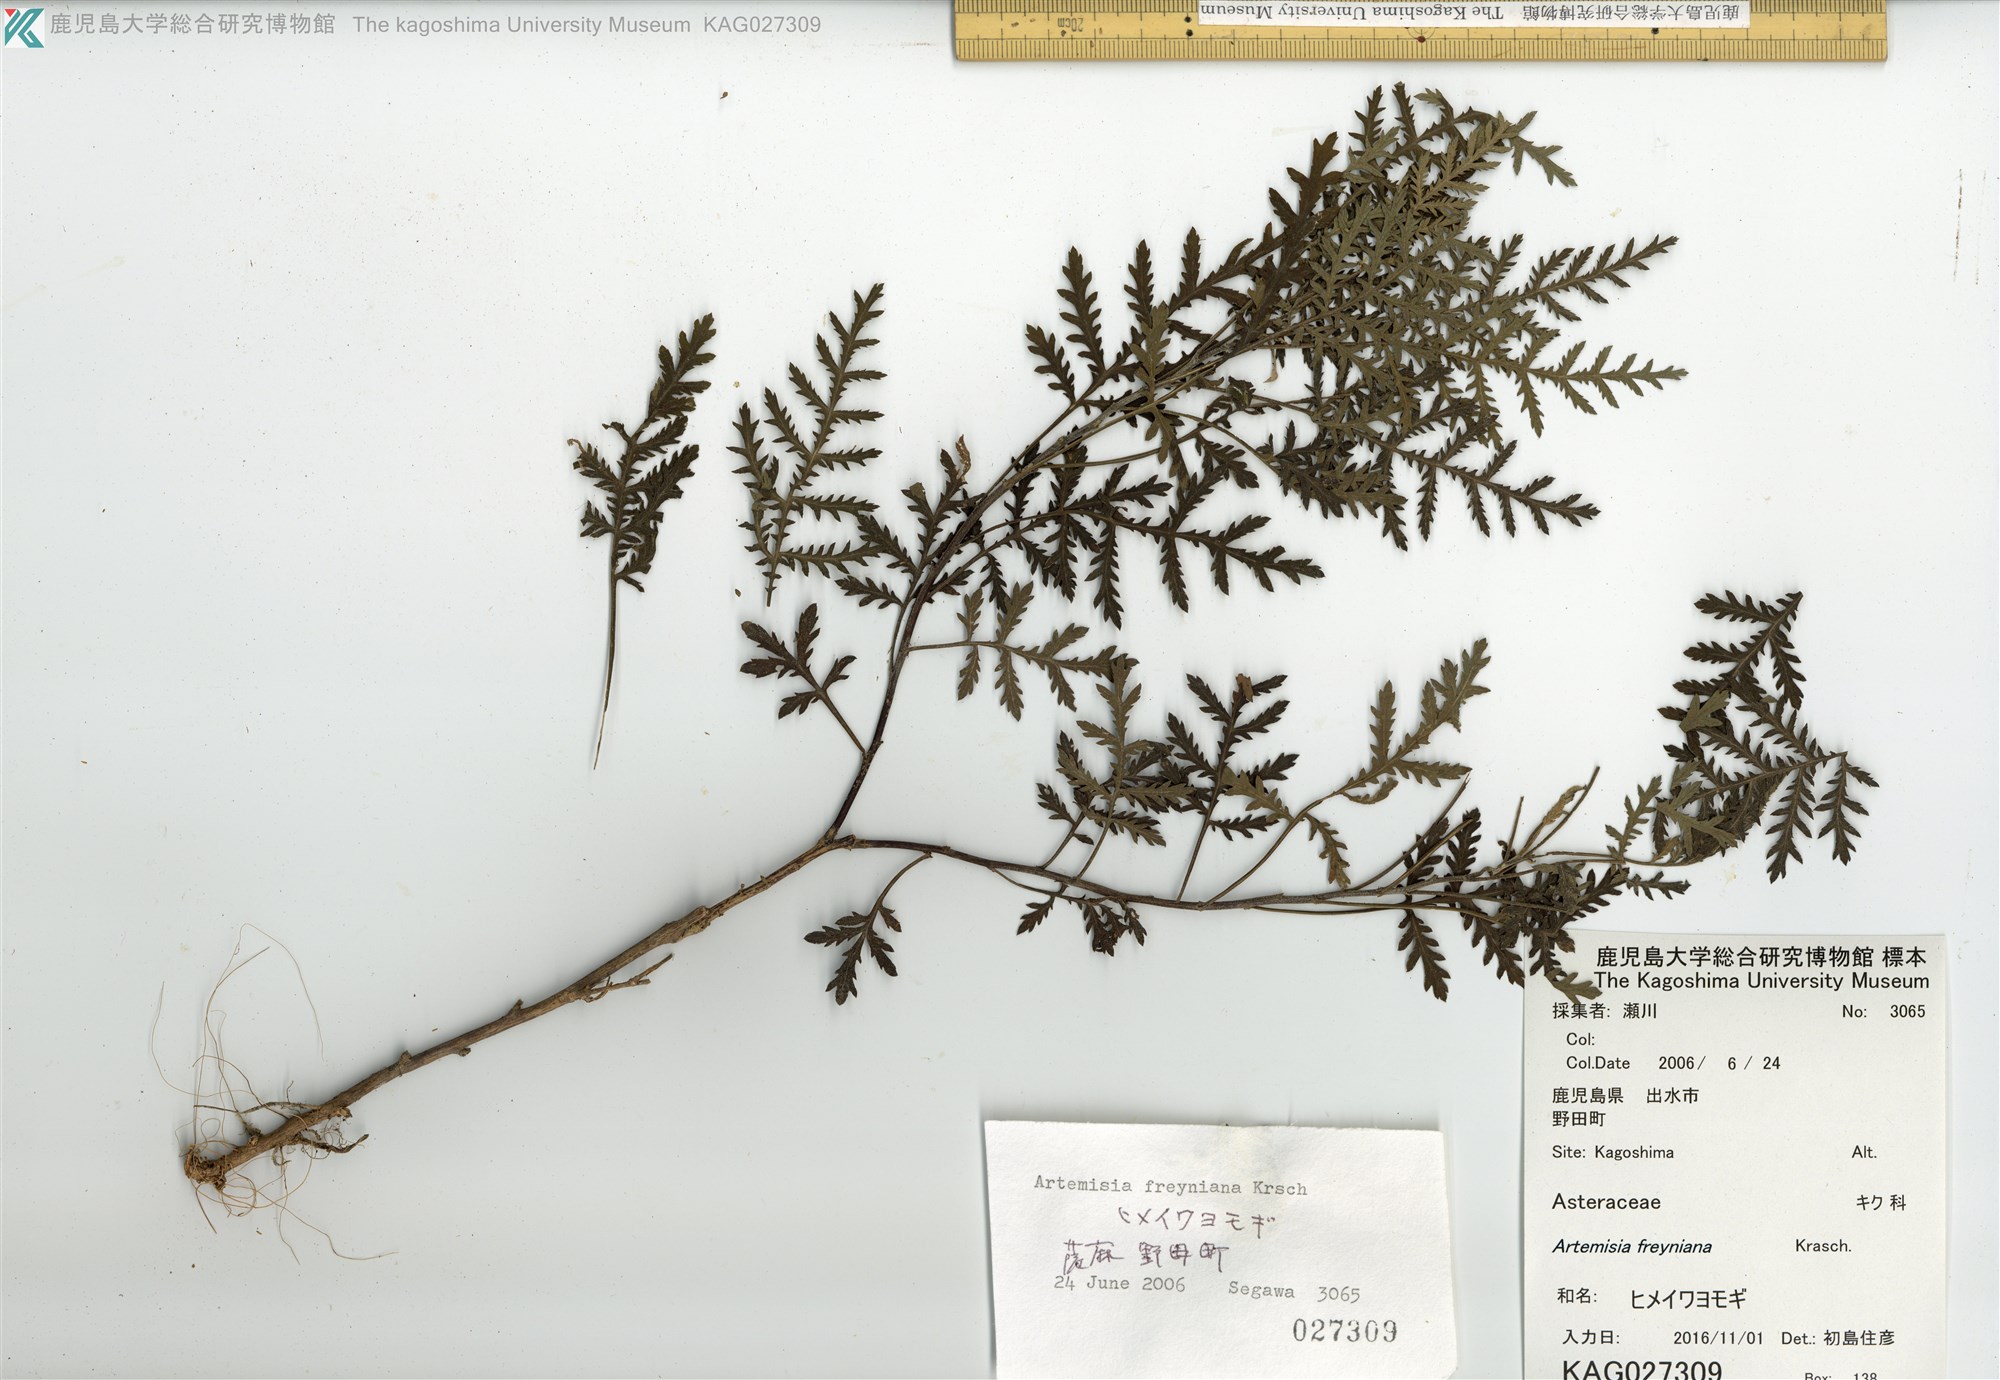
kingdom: Plantae
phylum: Tracheophyta
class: Magnoliopsida
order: Asterales
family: Asteraceae
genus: Artemisia
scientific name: Artemisia freyniana
